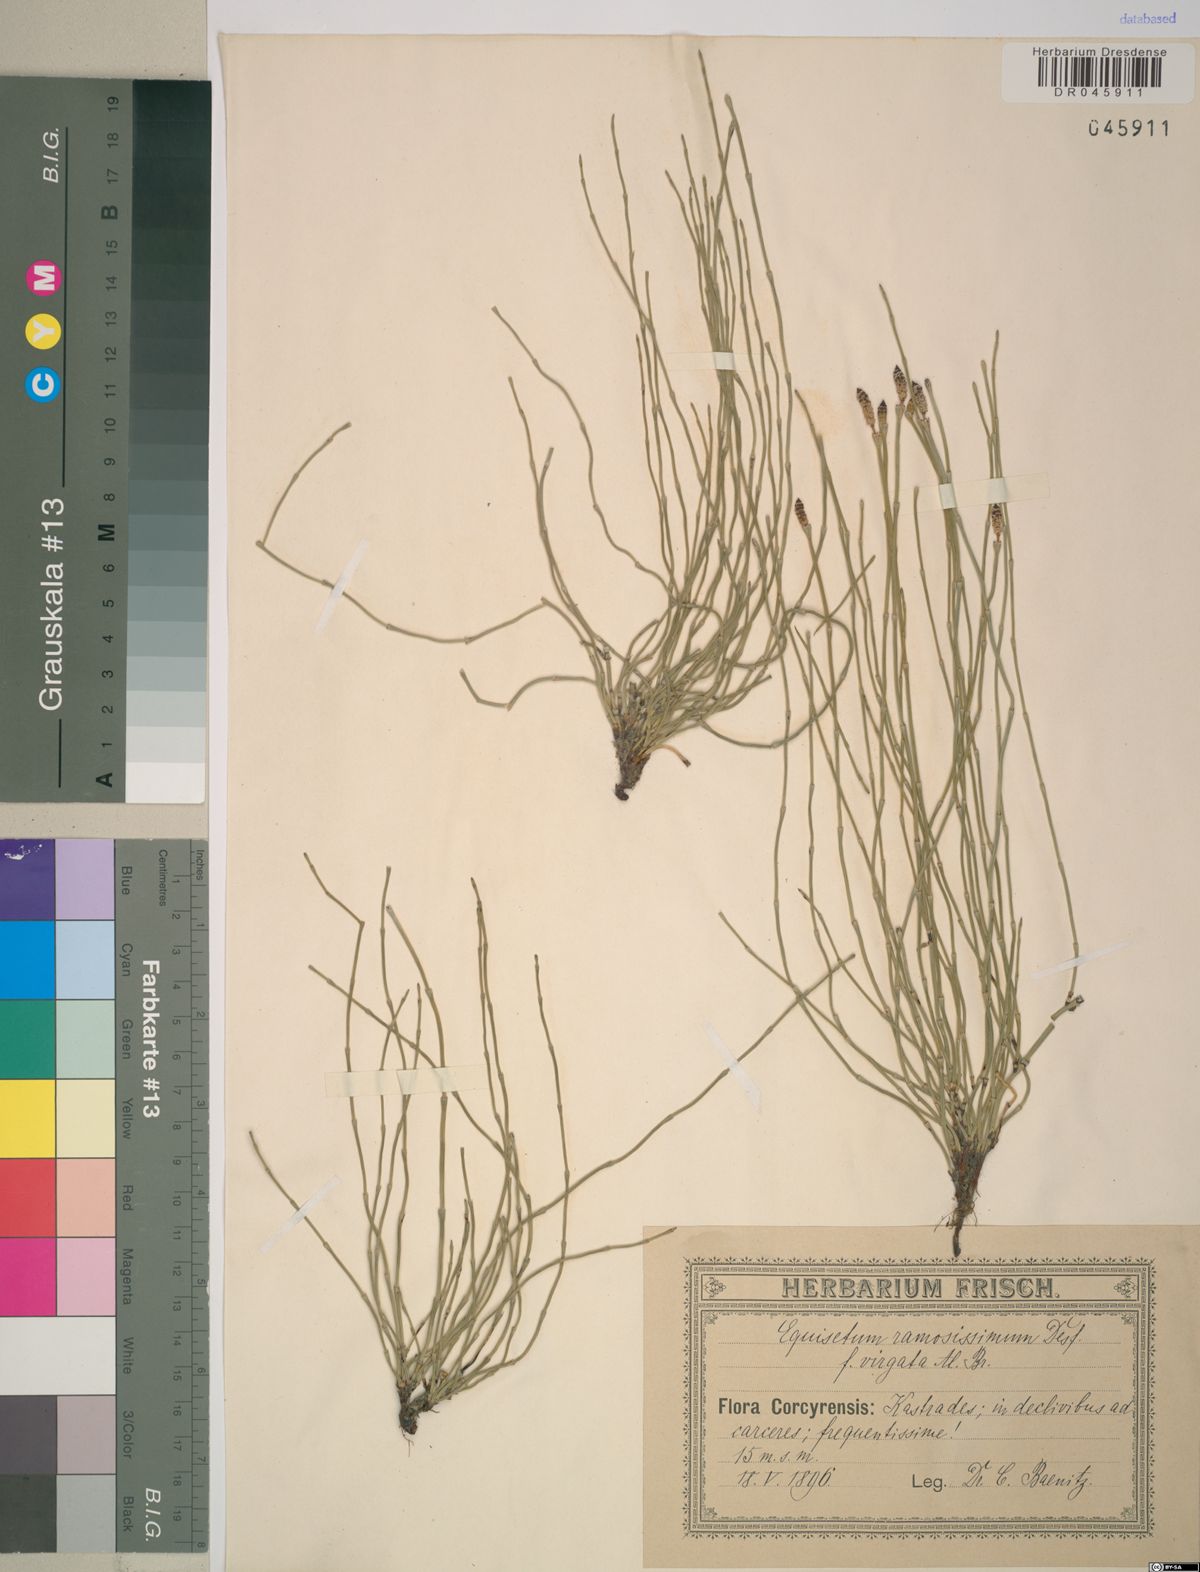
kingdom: Plantae
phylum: Tracheophyta
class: Polypodiopsida
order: Equisetales
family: Equisetaceae
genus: Equisetum
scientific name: Equisetum ramosissimum
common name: Branched horsetail
